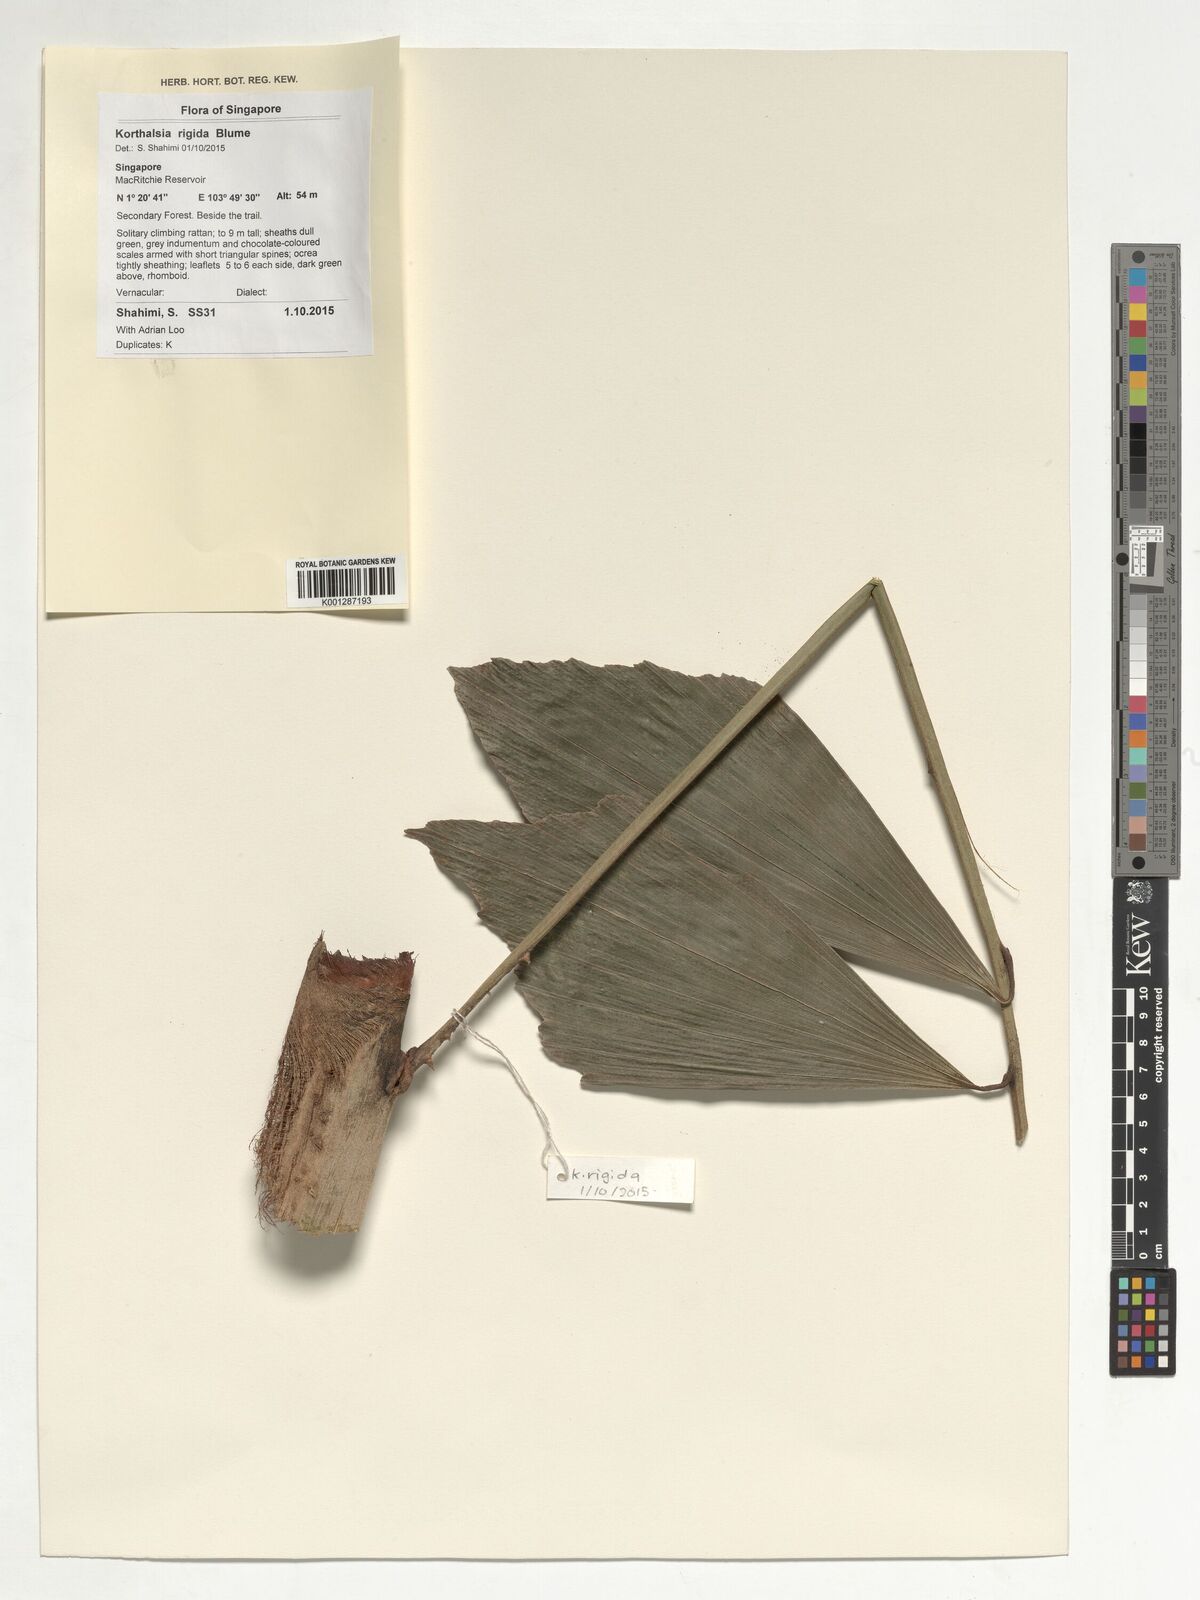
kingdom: Plantae
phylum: Tracheophyta
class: Liliopsida
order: Arecales
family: Arecaceae
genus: Korthalsia
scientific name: Korthalsia rigida
